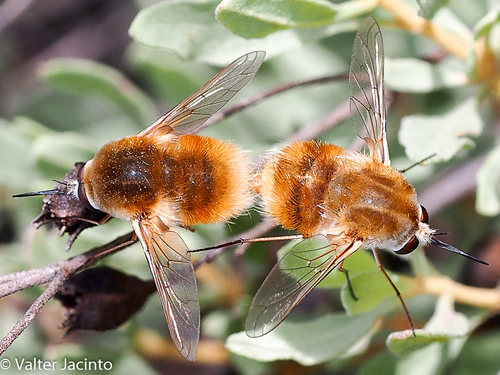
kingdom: Animalia
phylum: Arthropoda
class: Insecta
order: Diptera
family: Bombyliidae
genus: Bombylius
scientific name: Bombylius
